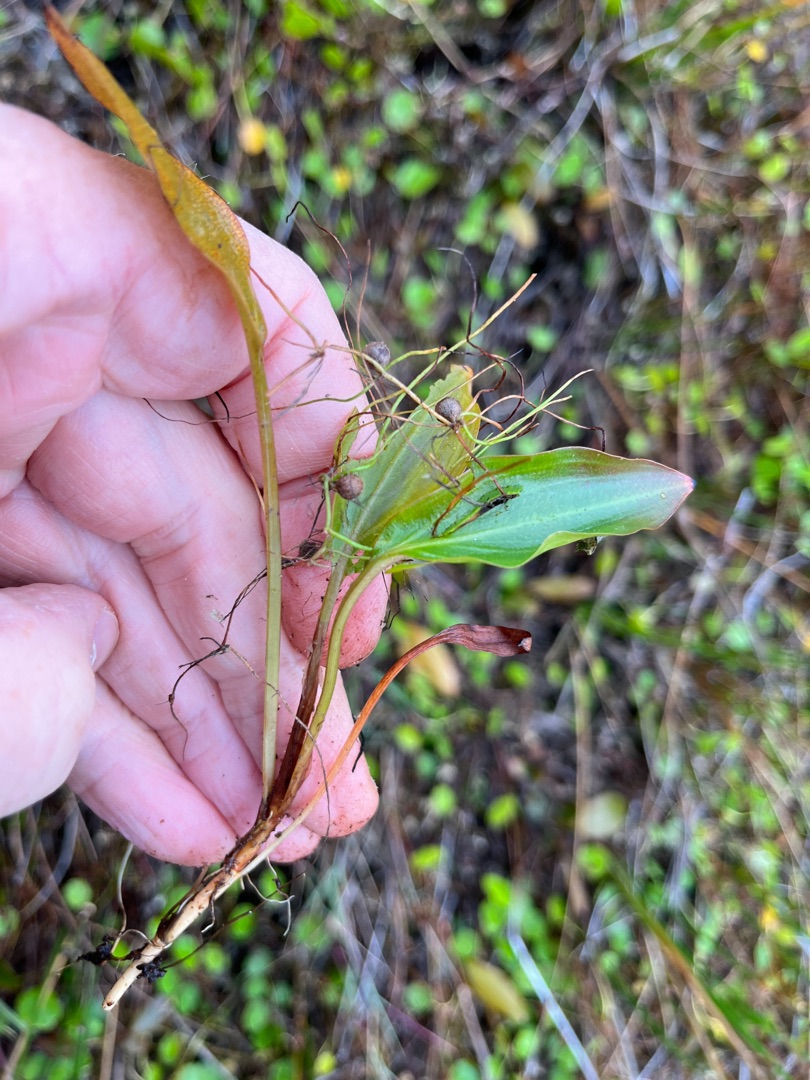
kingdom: Plantae
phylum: Tracheophyta
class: Liliopsida
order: Alismatales
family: Potamogetonaceae
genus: Potamogeton
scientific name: Potamogeton alpinus
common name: Rust-vandaks
